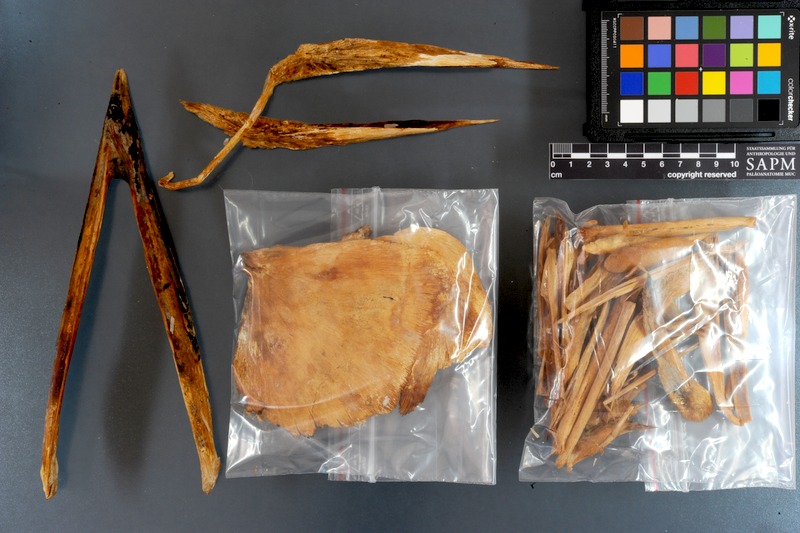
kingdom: Animalia
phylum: Chordata
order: Perciformes
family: Xiphiidae
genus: Xiphias
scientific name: Xiphias gladius
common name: Swordfish
